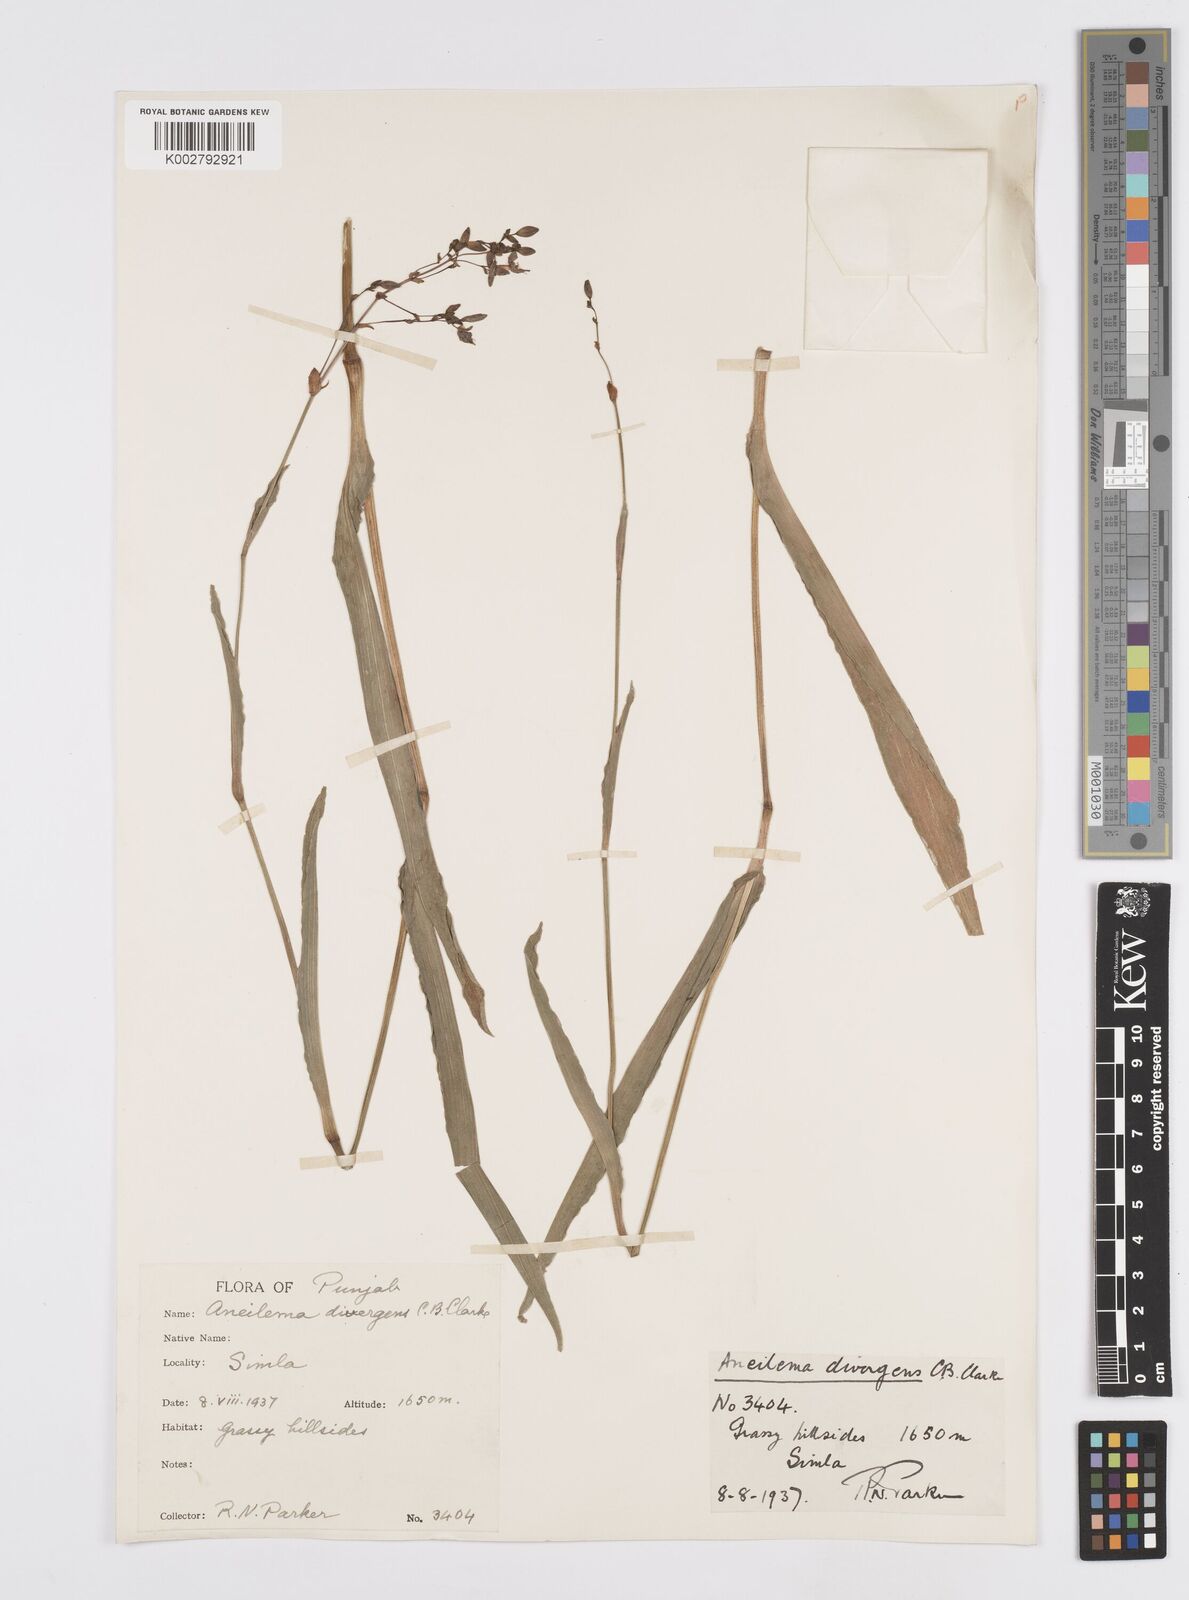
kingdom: Plantae
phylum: Tracheophyta
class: Liliopsida
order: Commelinales
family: Commelinaceae
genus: Murdannia
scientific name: Murdannia divergens
